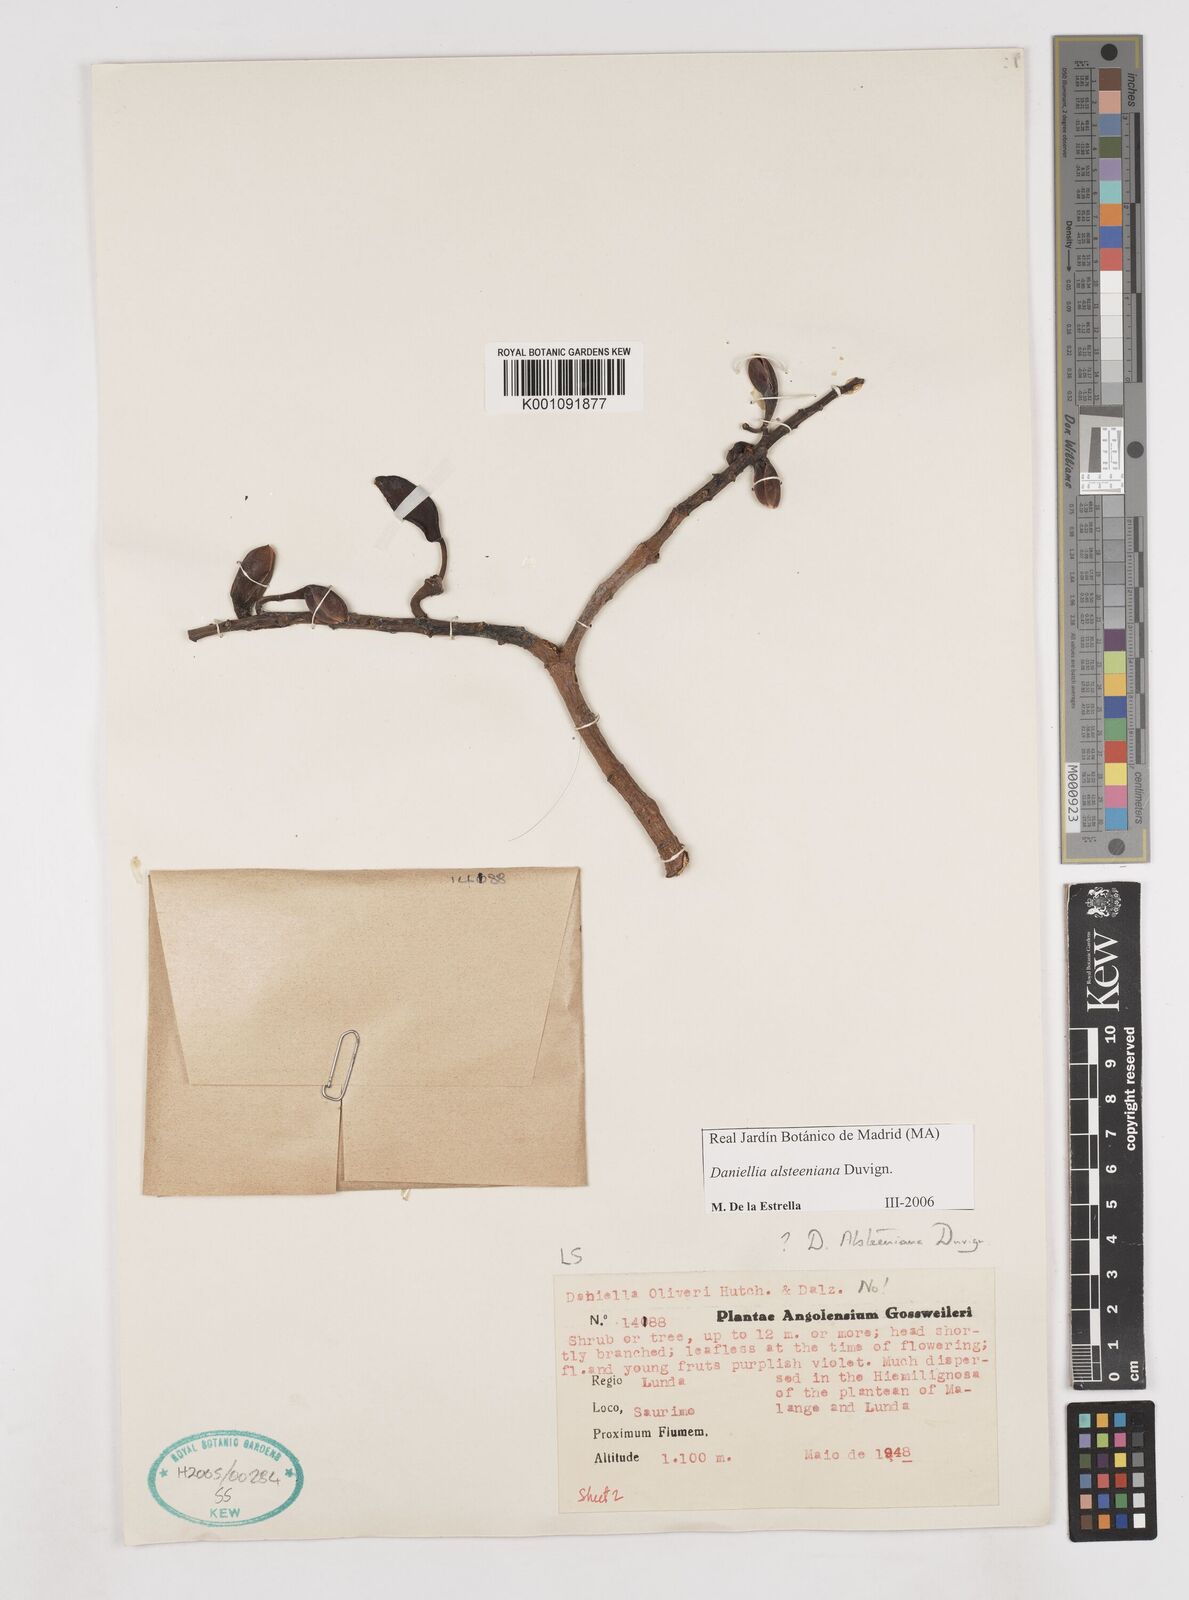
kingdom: Plantae
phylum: Tracheophyta
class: Magnoliopsida
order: Fabales
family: Fabaceae
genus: Daniellia
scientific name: Daniellia alsteeniana
